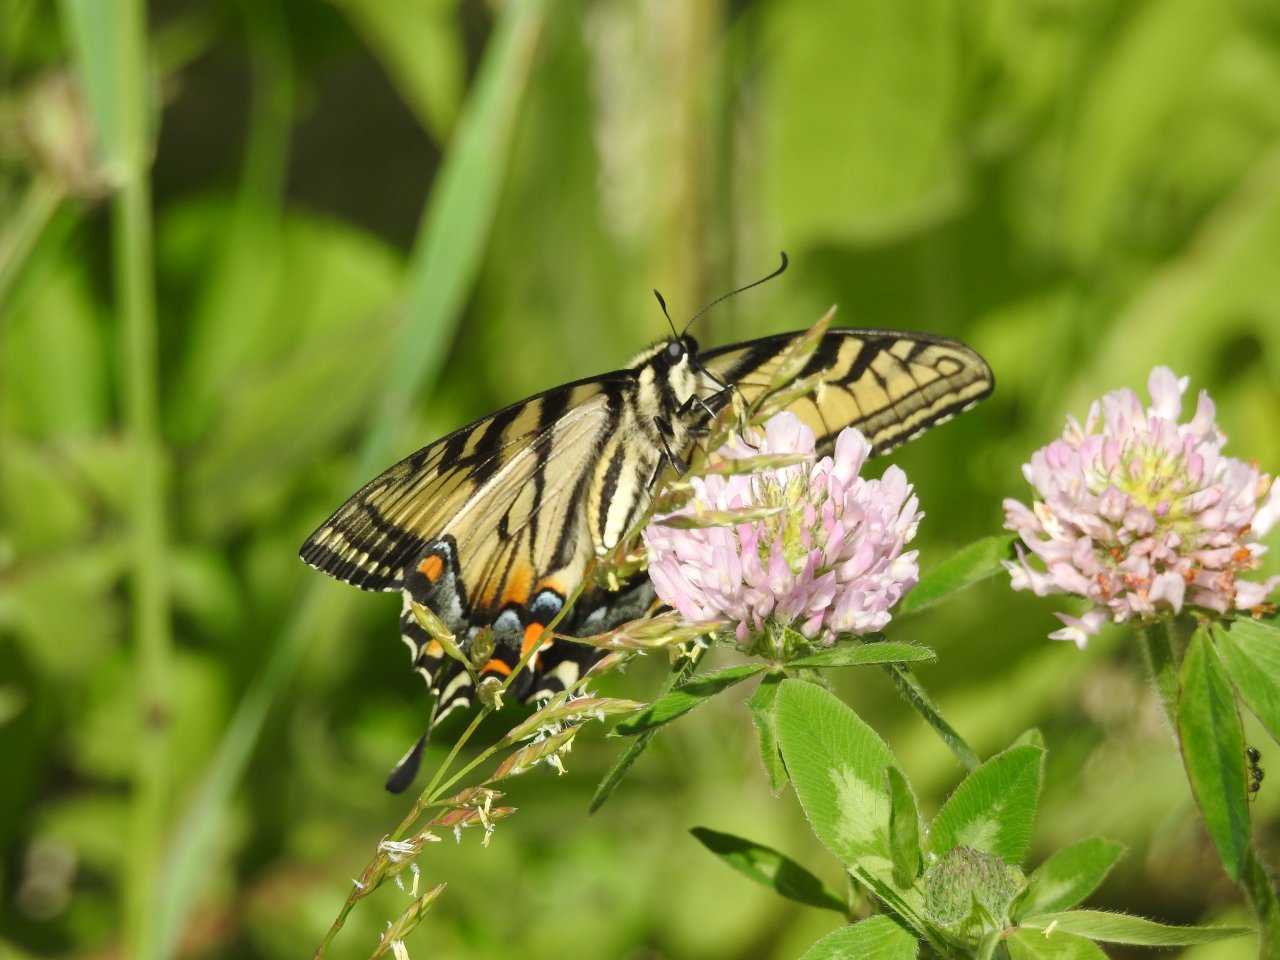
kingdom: Animalia
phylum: Arthropoda
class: Insecta
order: Lepidoptera
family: Papilionidae
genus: Pterourus
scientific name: Pterourus canadensis
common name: Canadian Tiger Swallowtail
